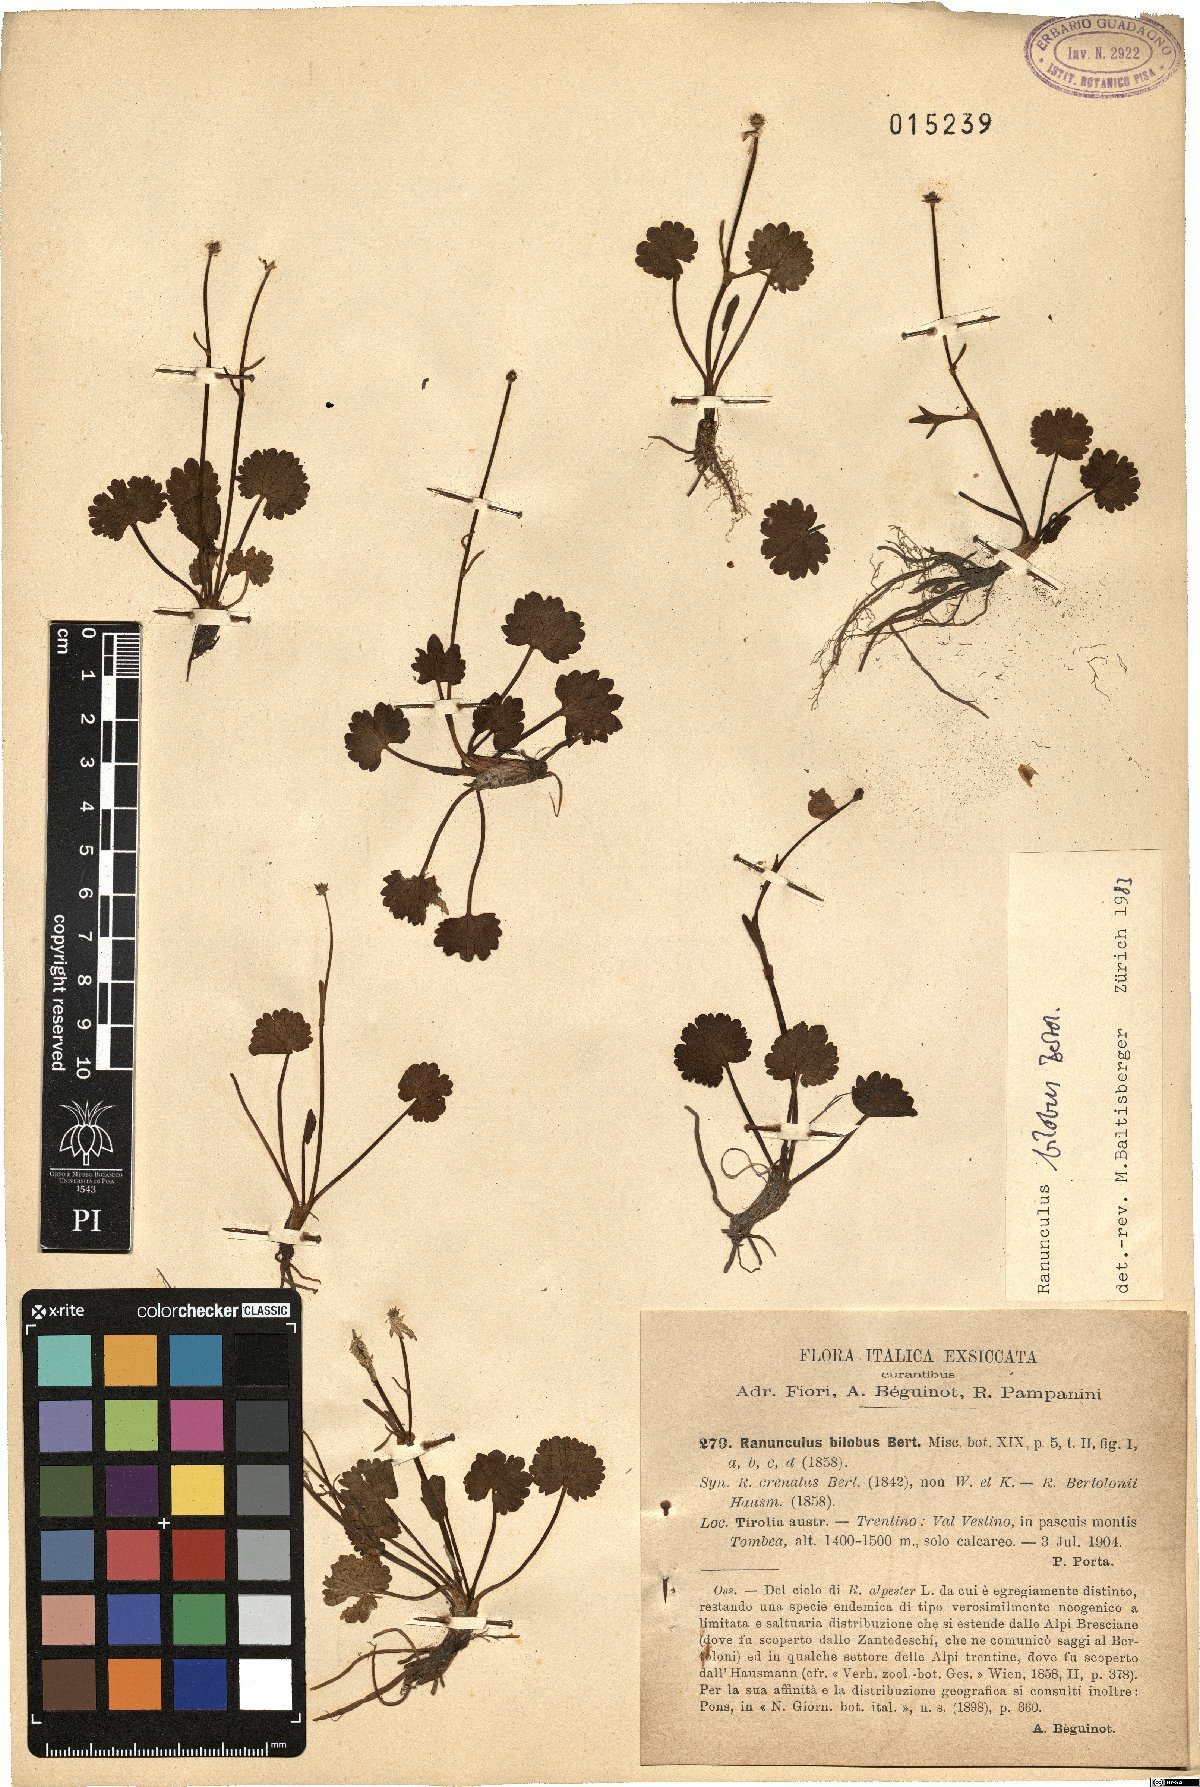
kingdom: Plantae
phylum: Tracheophyta
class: Magnoliopsida
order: Ranunculales
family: Ranunculaceae
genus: Ranunculus
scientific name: Ranunculus bilobus
